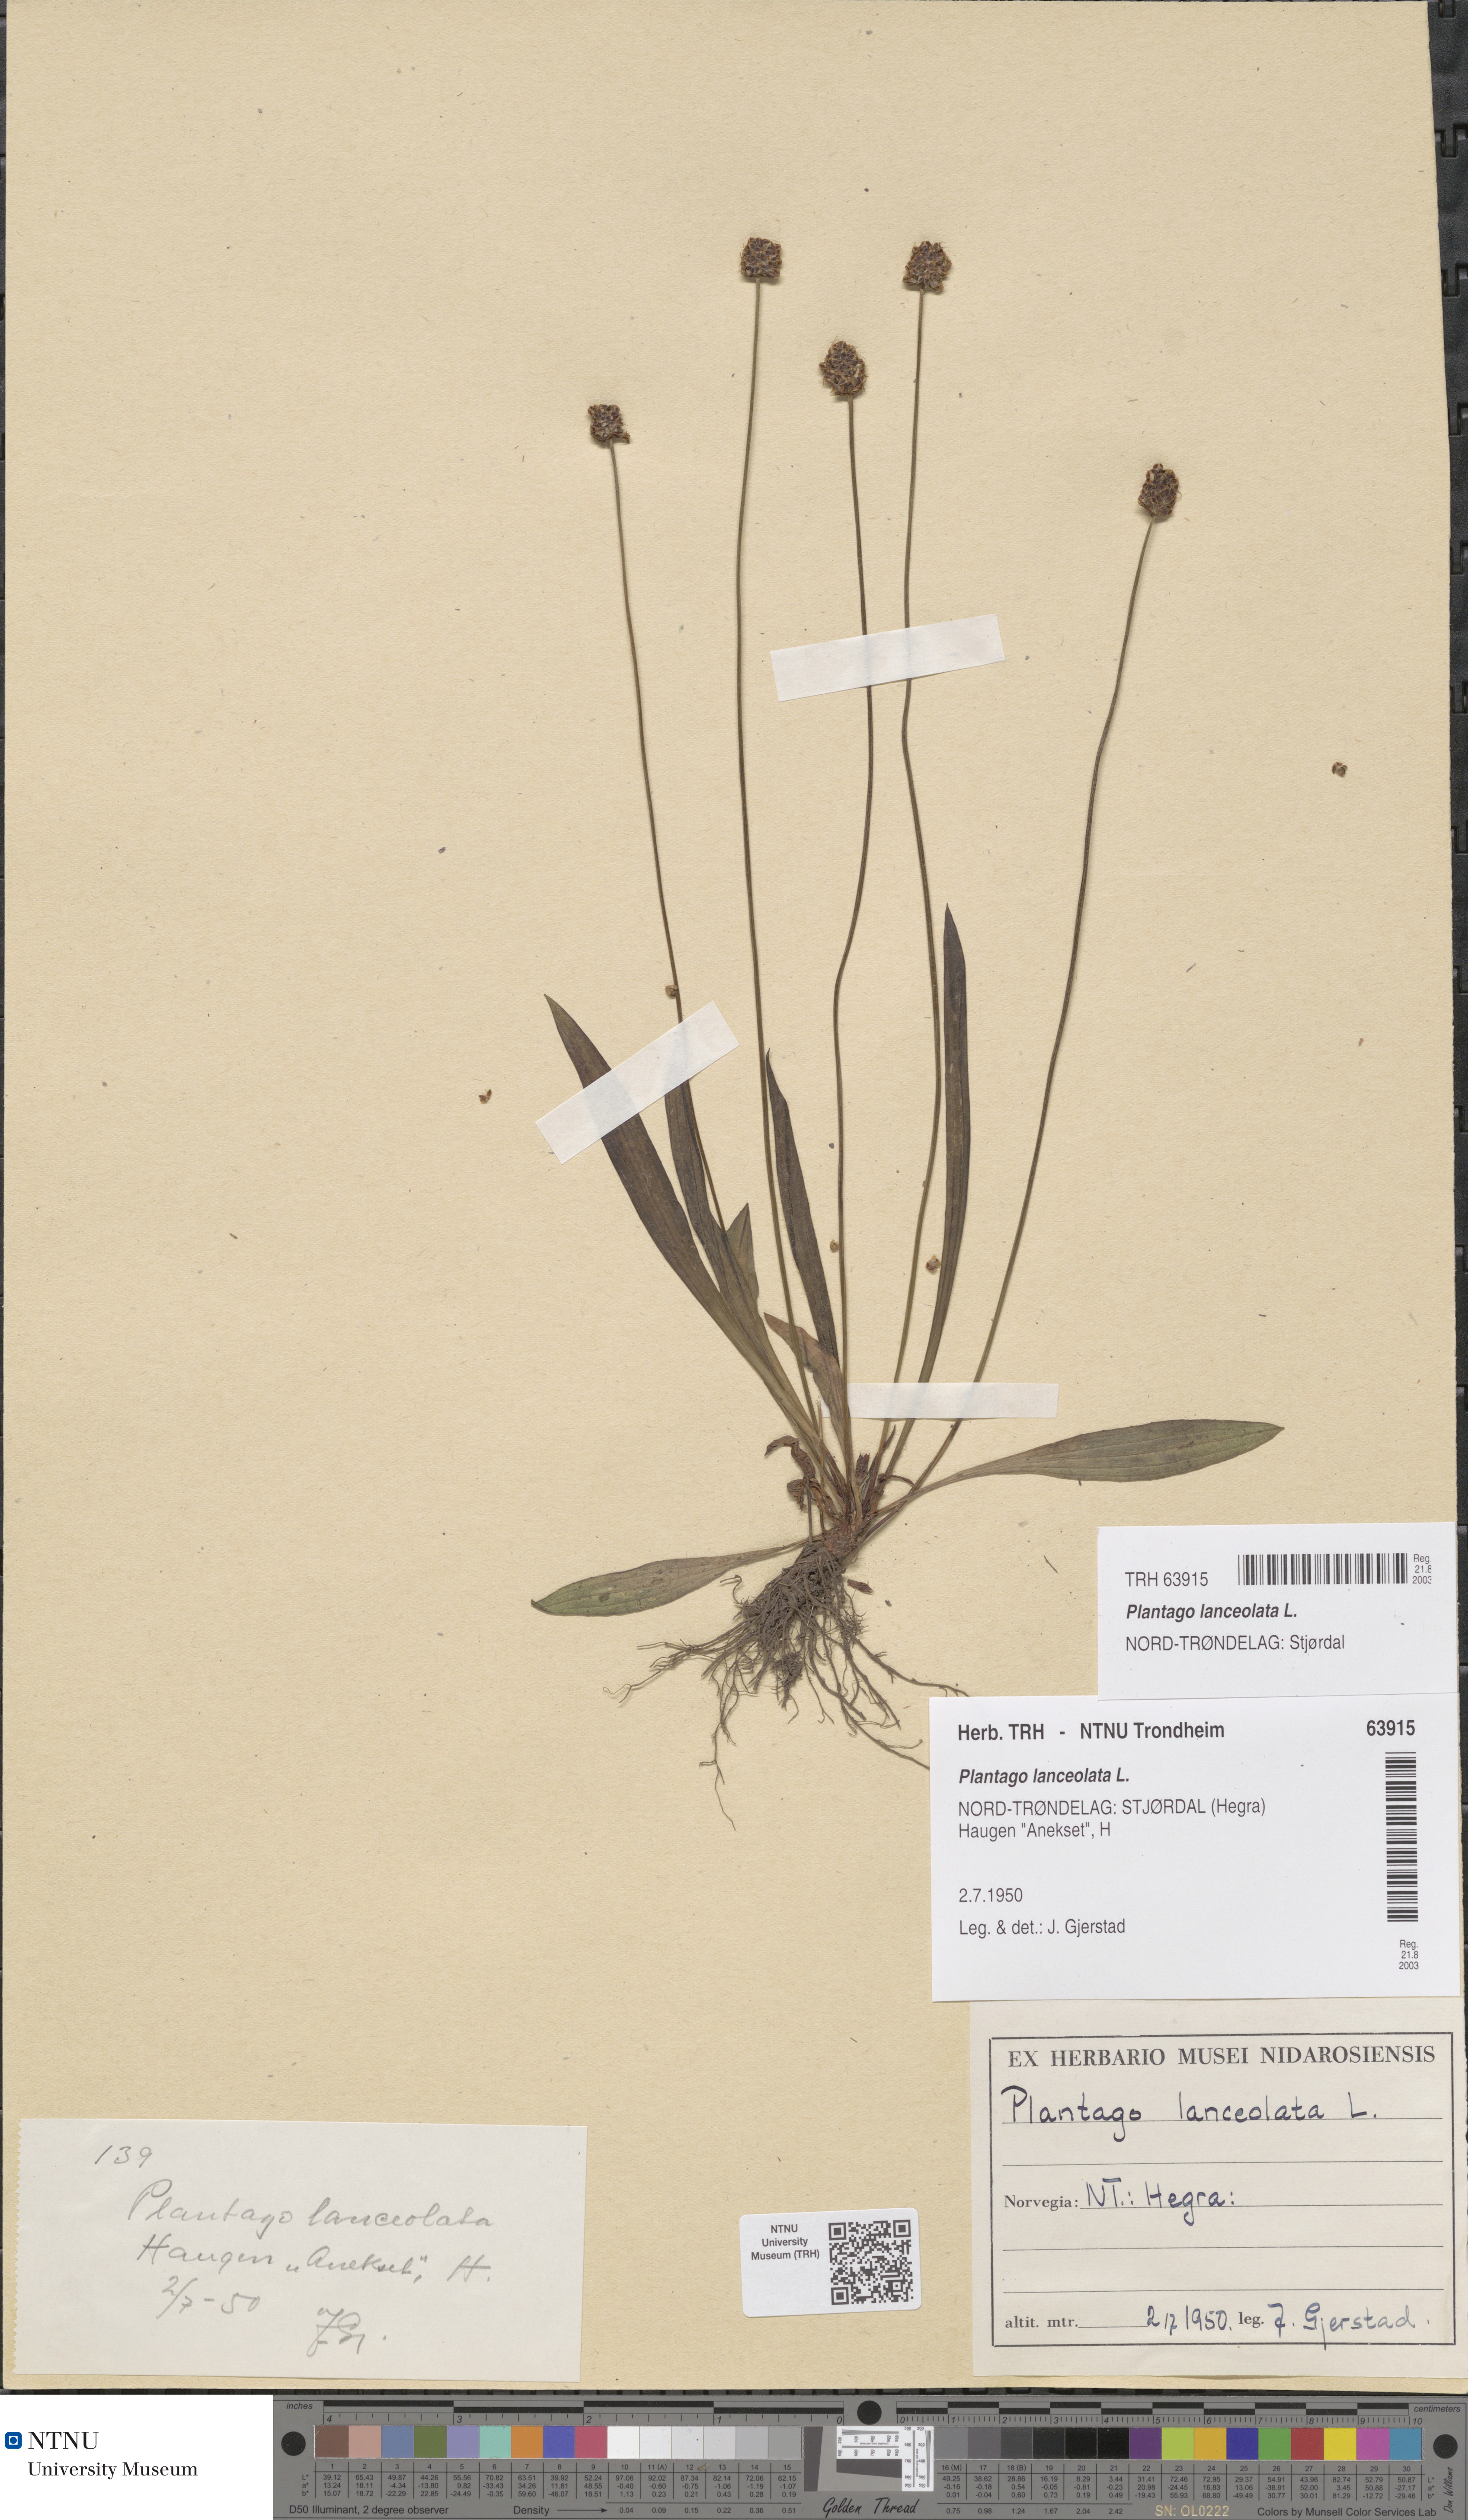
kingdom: Plantae
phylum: Tracheophyta
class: Magnoliopsida
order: Lamiales
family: Plantaginaceae
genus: Plantago
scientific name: Plantago lanceolata
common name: Ribwort plantain
